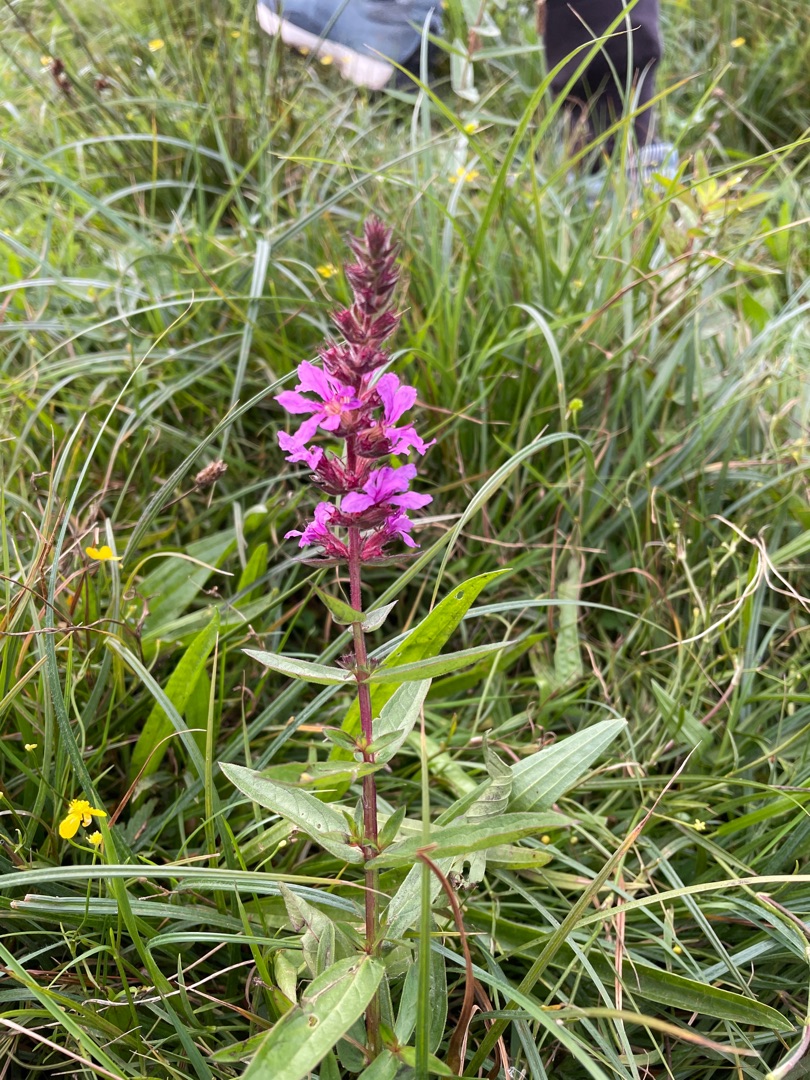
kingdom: Plantae
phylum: Tracheophyta
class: Magnoliopsida
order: Myrtales
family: Lythraceae
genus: Lythrum
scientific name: Lythrum salicaria
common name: Kattehale
